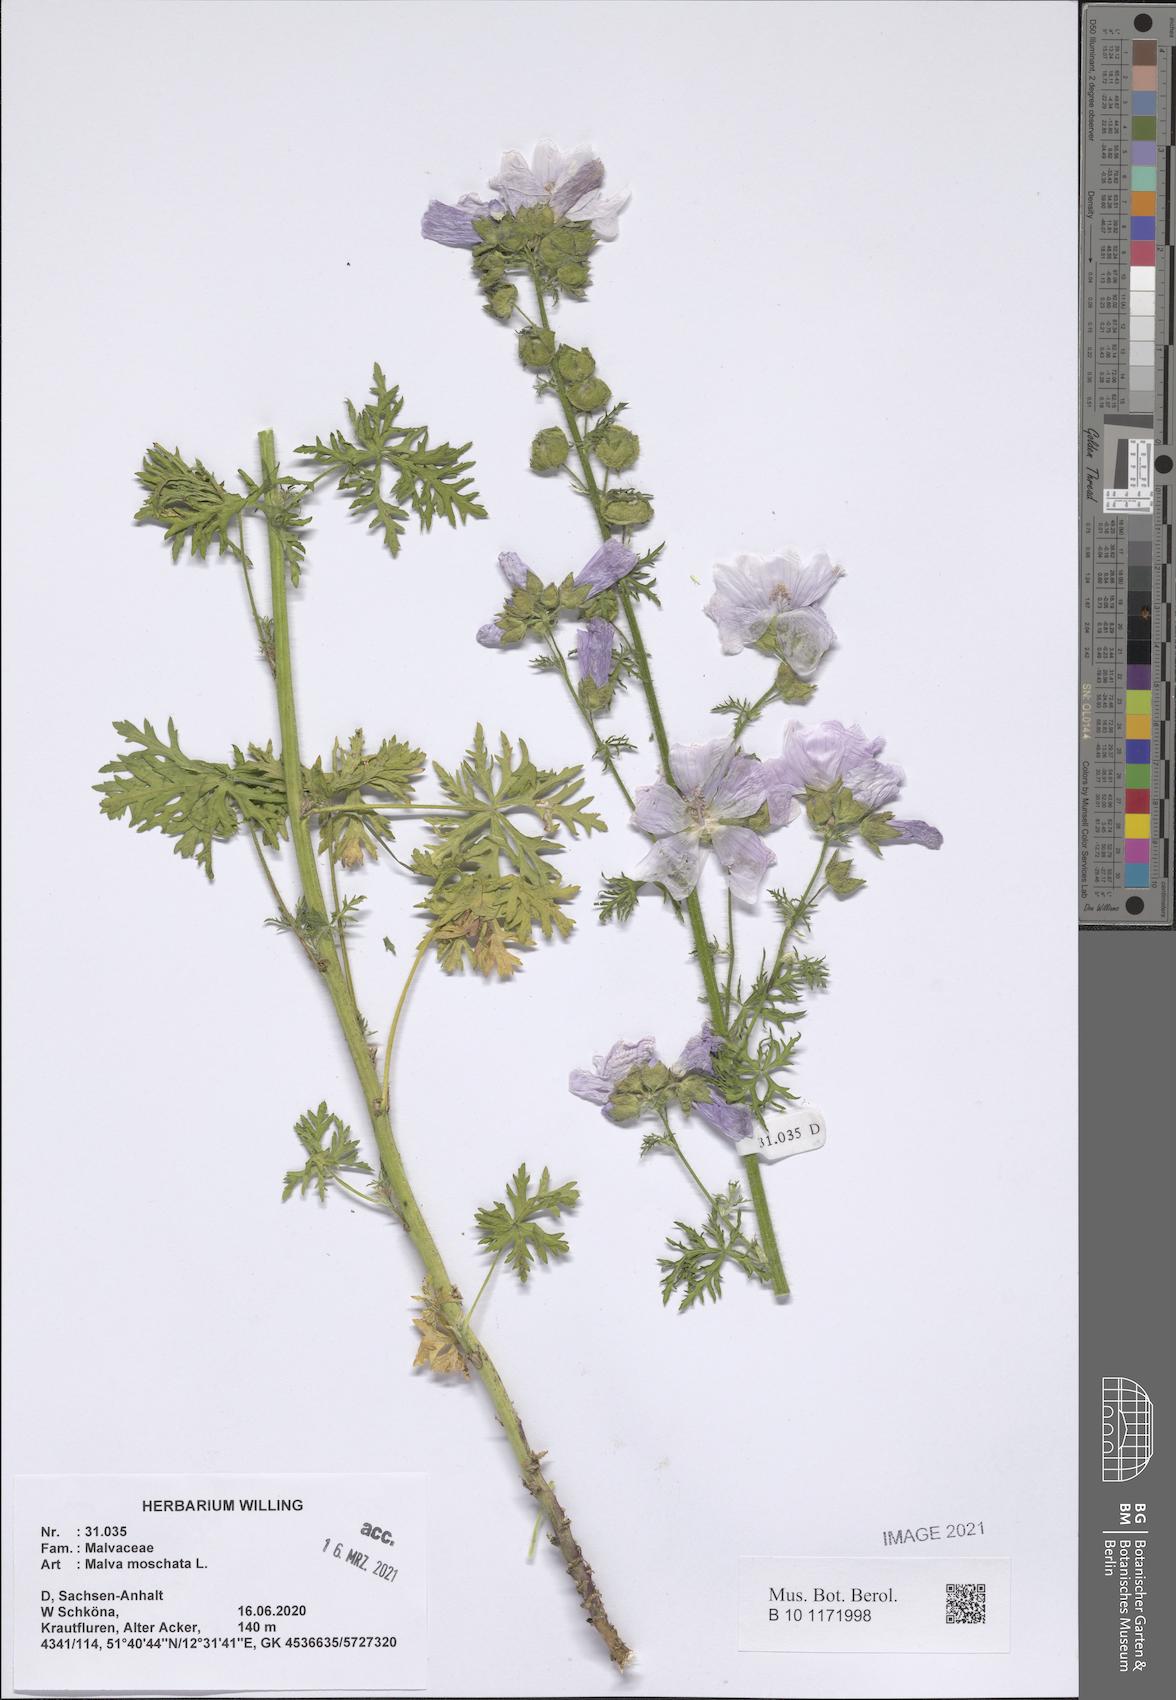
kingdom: Plantae
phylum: Tracheophyta
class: Magnoliopsida
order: Malvales
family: Malvaceae
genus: Malva
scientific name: Malva moschata
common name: Musk mallow
